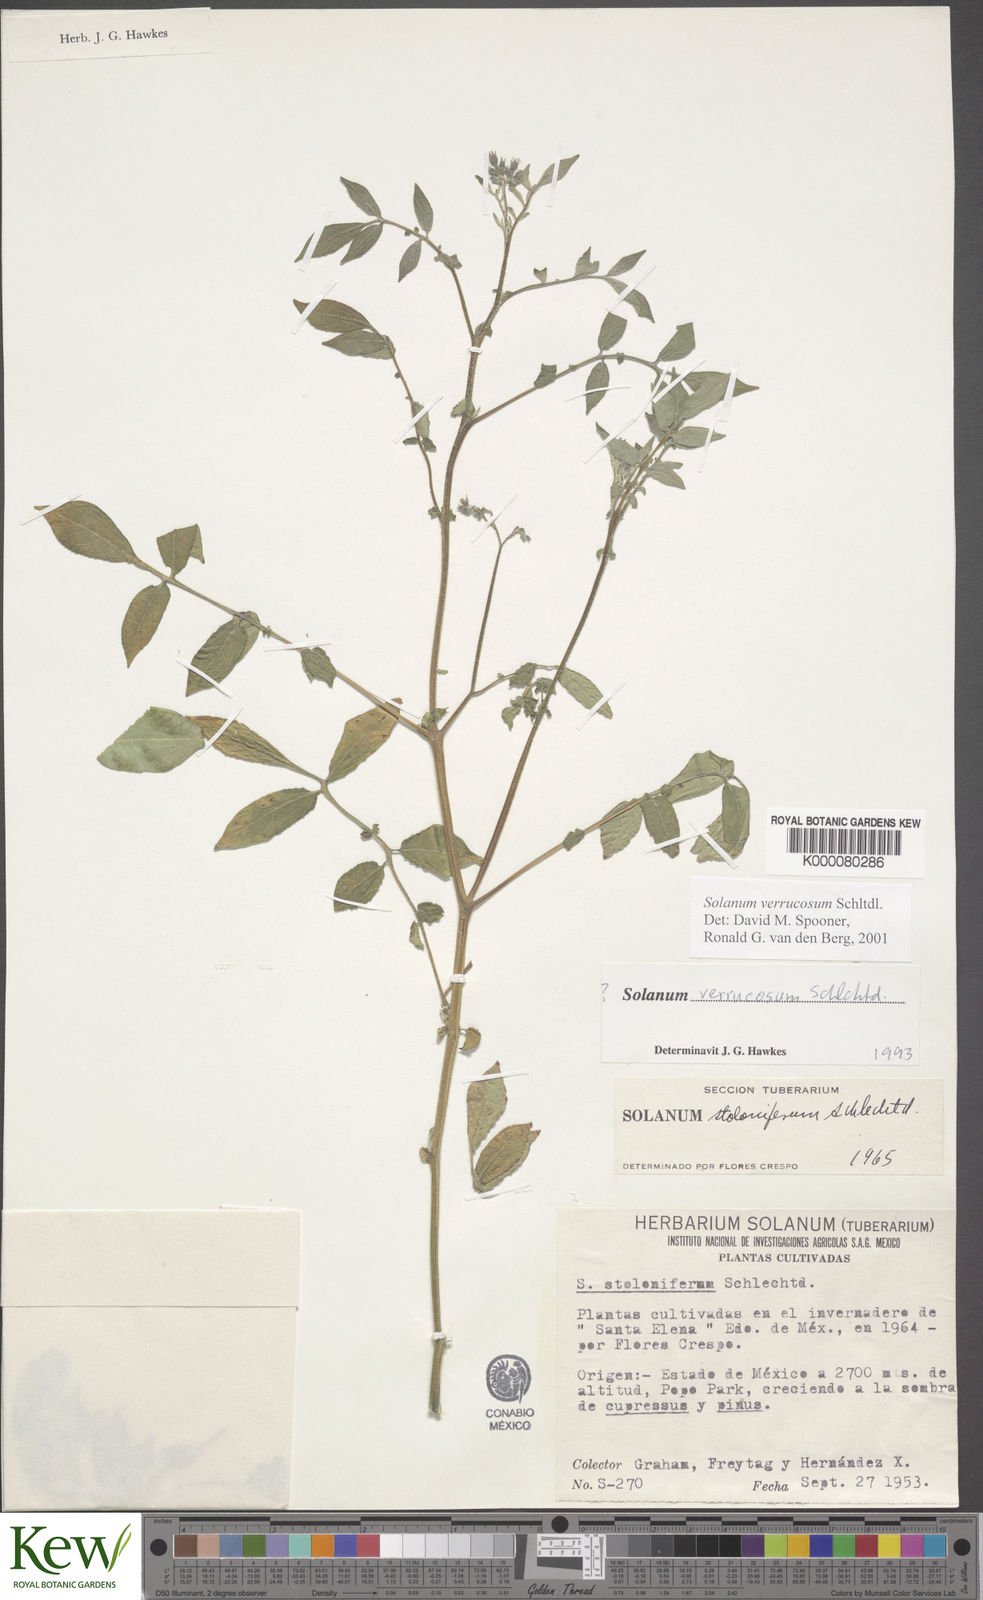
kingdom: Plantae
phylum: Tracheophyta
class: Magnoliopsida
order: Solanales
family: Solanaceae
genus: Solanum
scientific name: Solanum verrucosum
